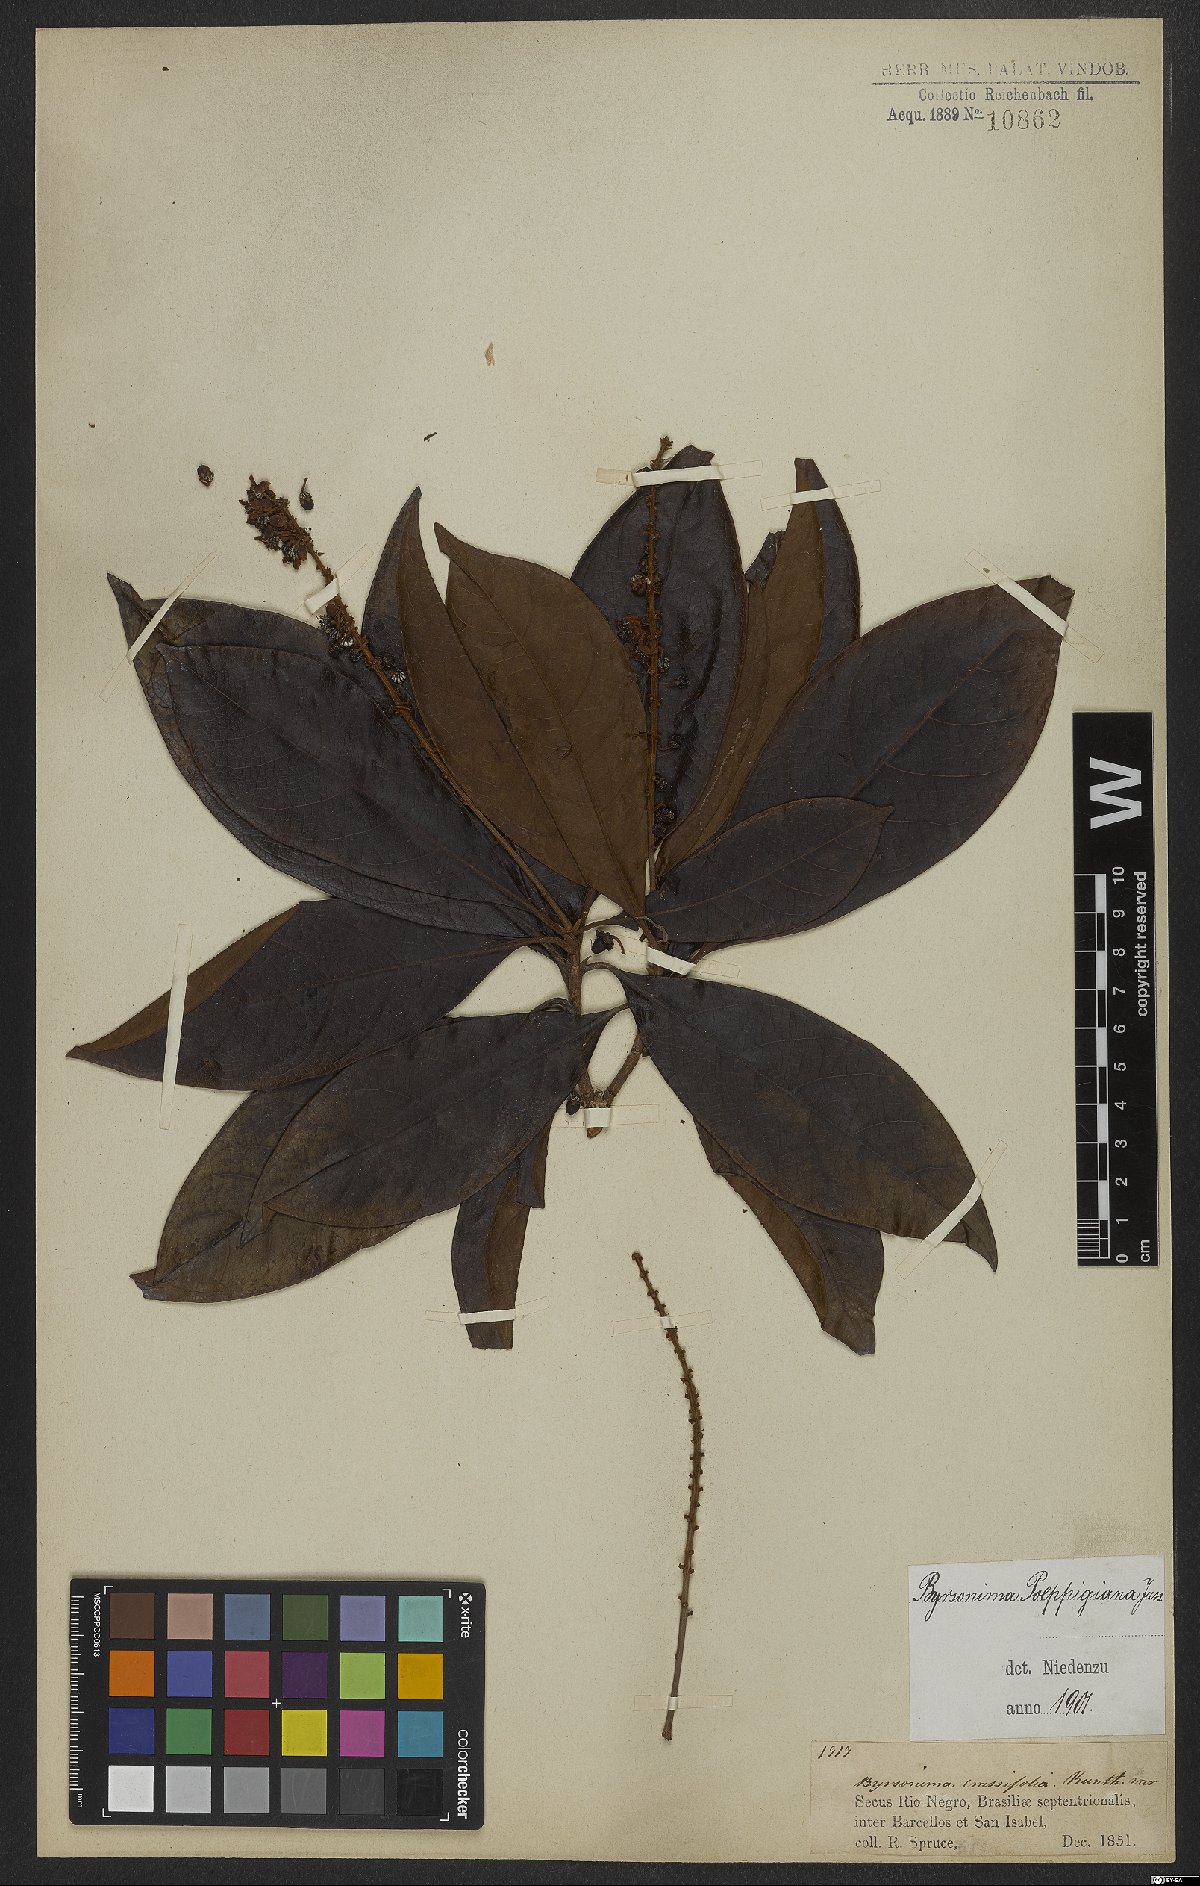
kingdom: Plantae
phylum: Tracheophyta
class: Magnoliopsida
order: Malpighiales
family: Malpighiaceae
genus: Byrsonima
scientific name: Byrsonima poeppigiana
